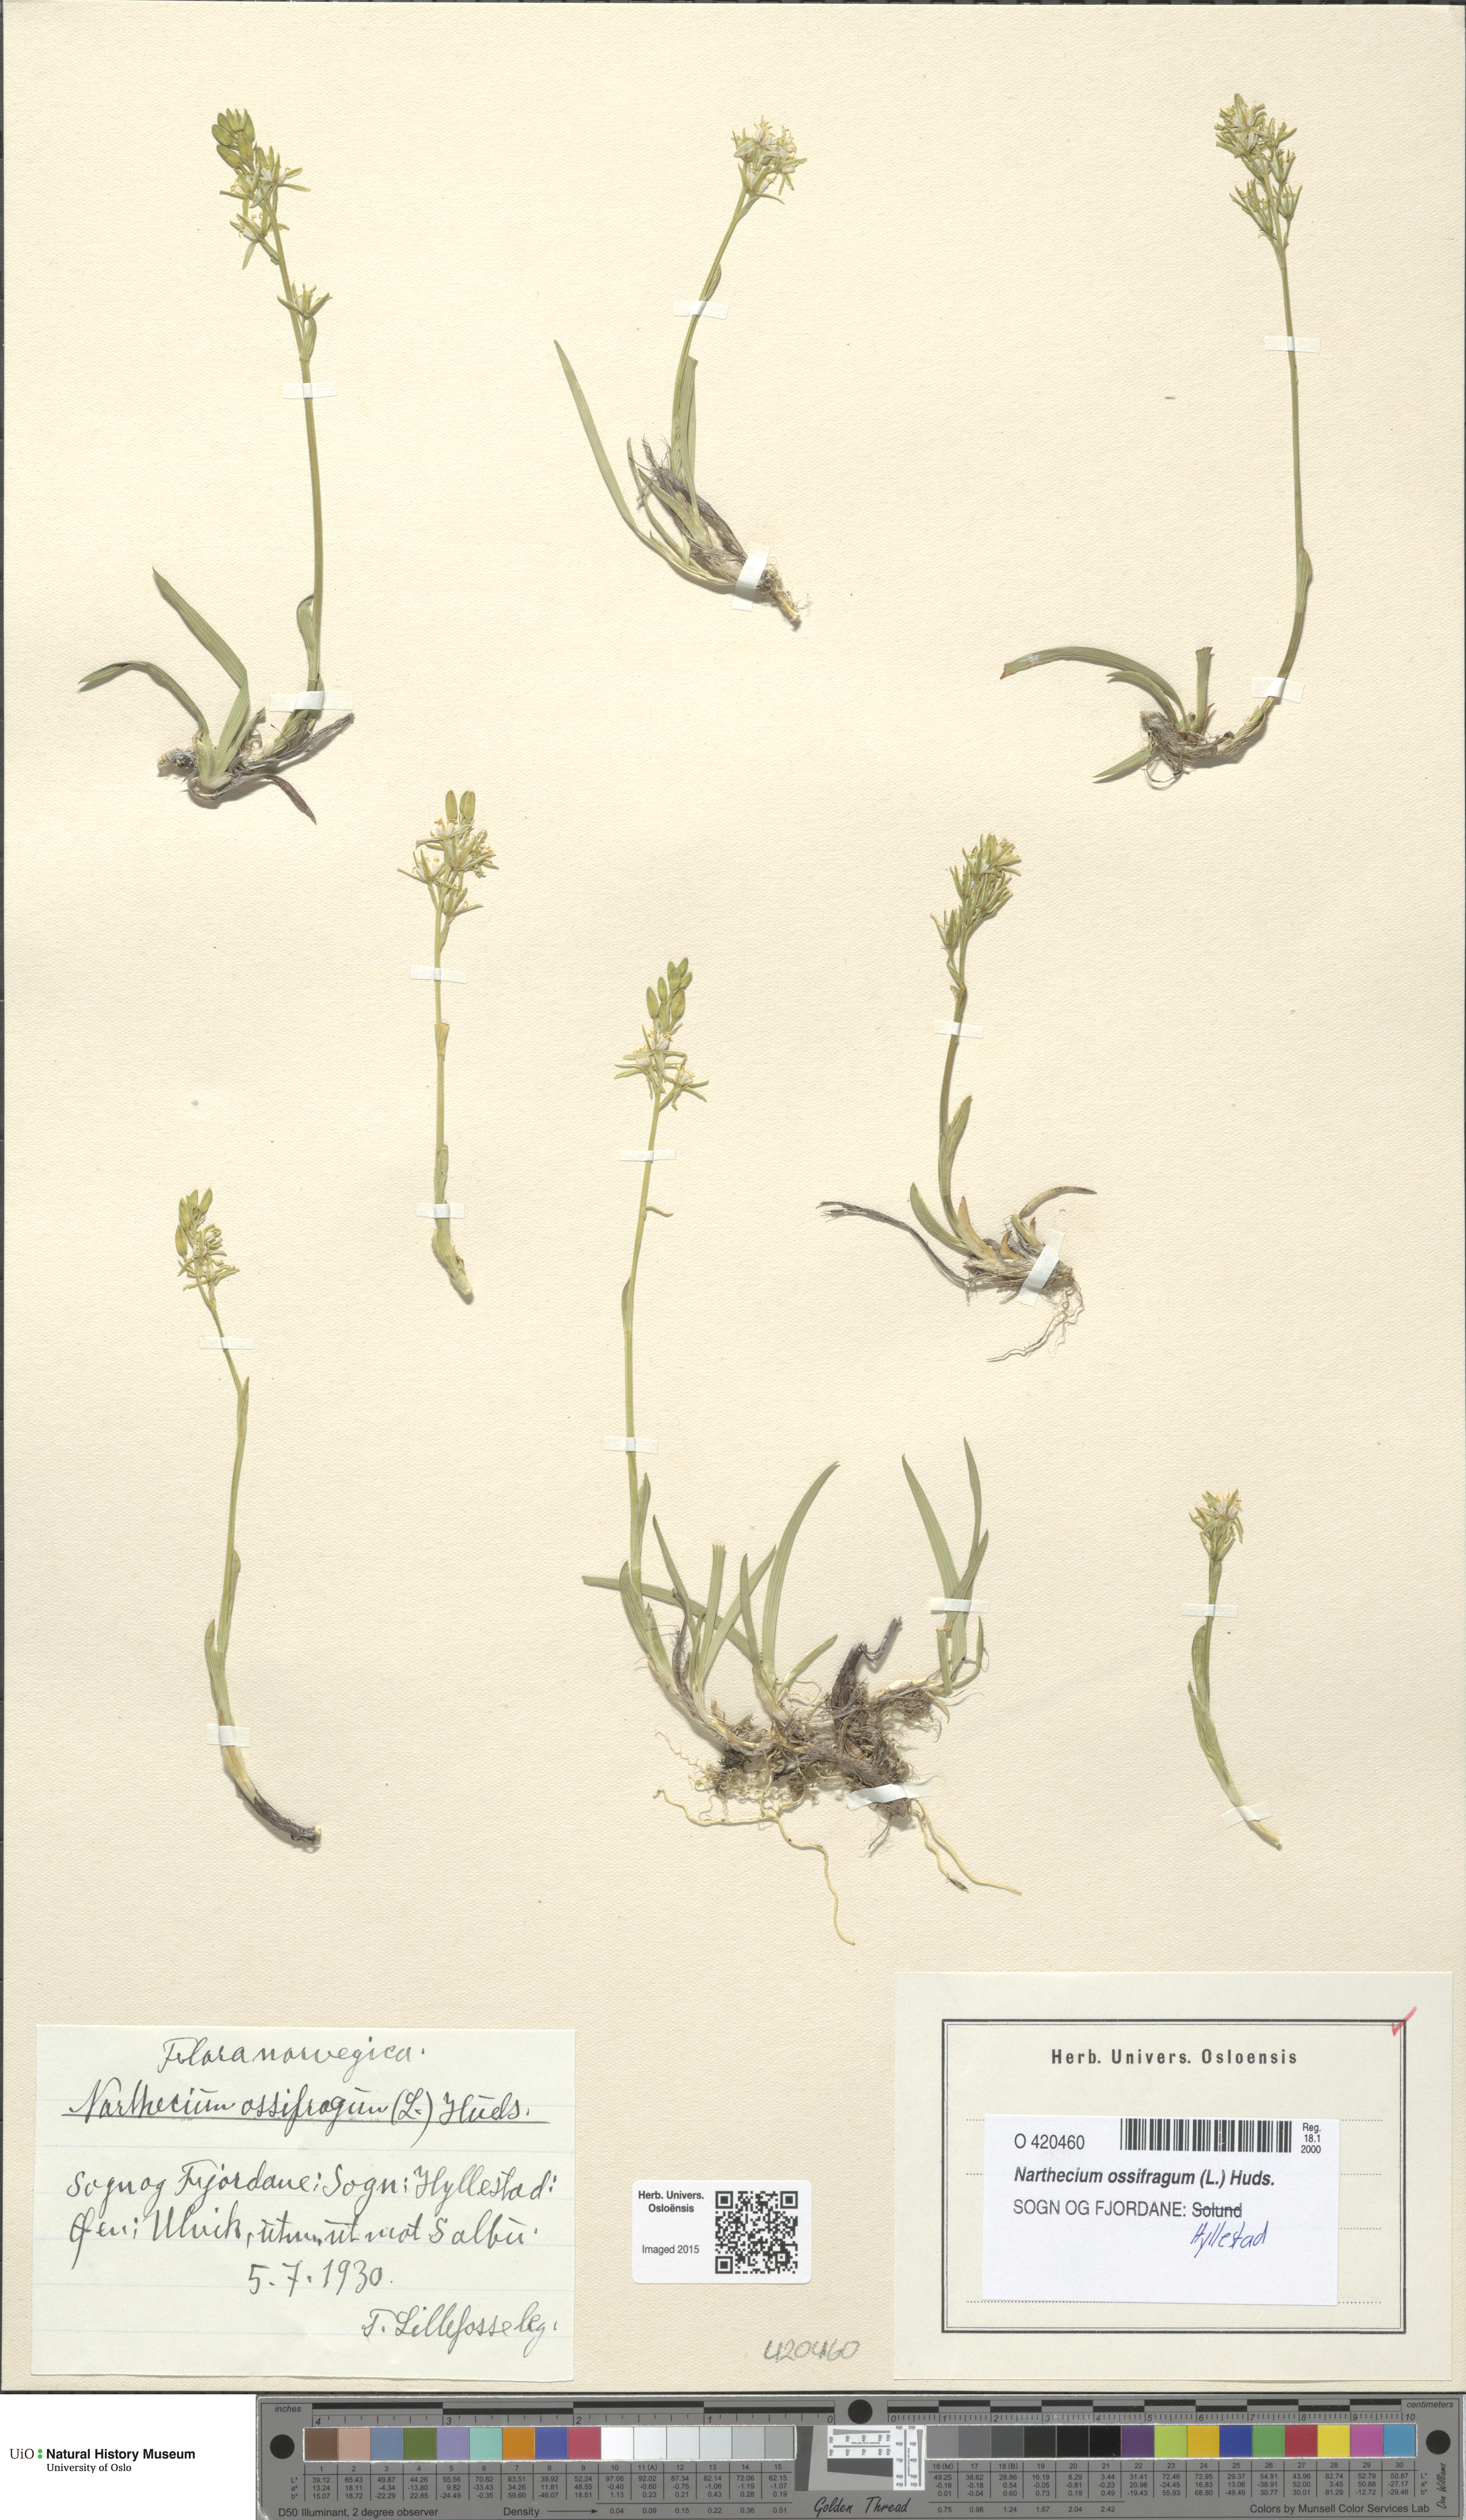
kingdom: Plantae
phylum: Tracheophyta
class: Liliopsida
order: Dioscoreales
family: Nartheciaceae
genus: Narthecium
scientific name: Narthecium ossifragum
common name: Bog asphodel
